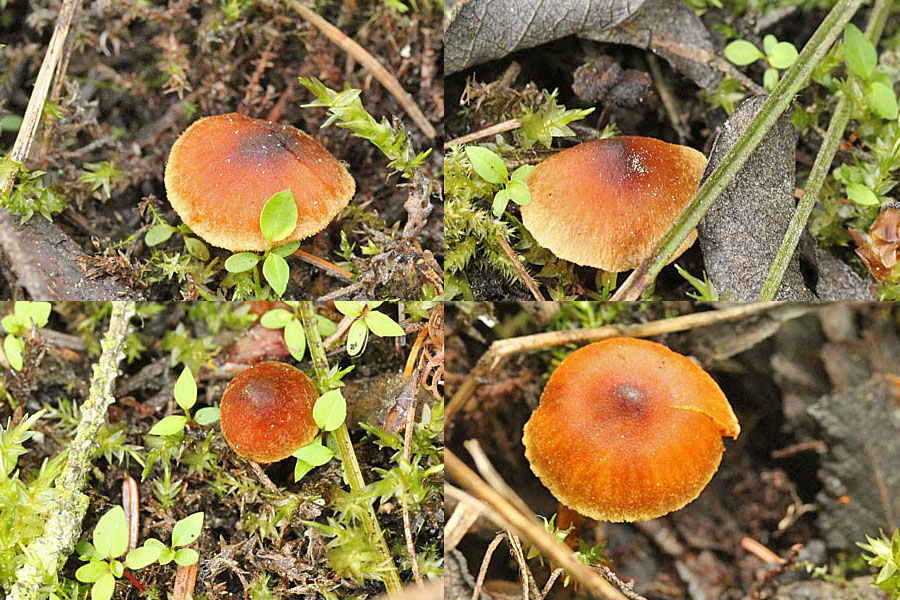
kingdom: Fungi
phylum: Basidiomycota
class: Agaricomycetes
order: Agaricales
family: Cortinariaceae
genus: Cortinarius
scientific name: Cortinarius saniosus
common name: gultrævlet slørhat
